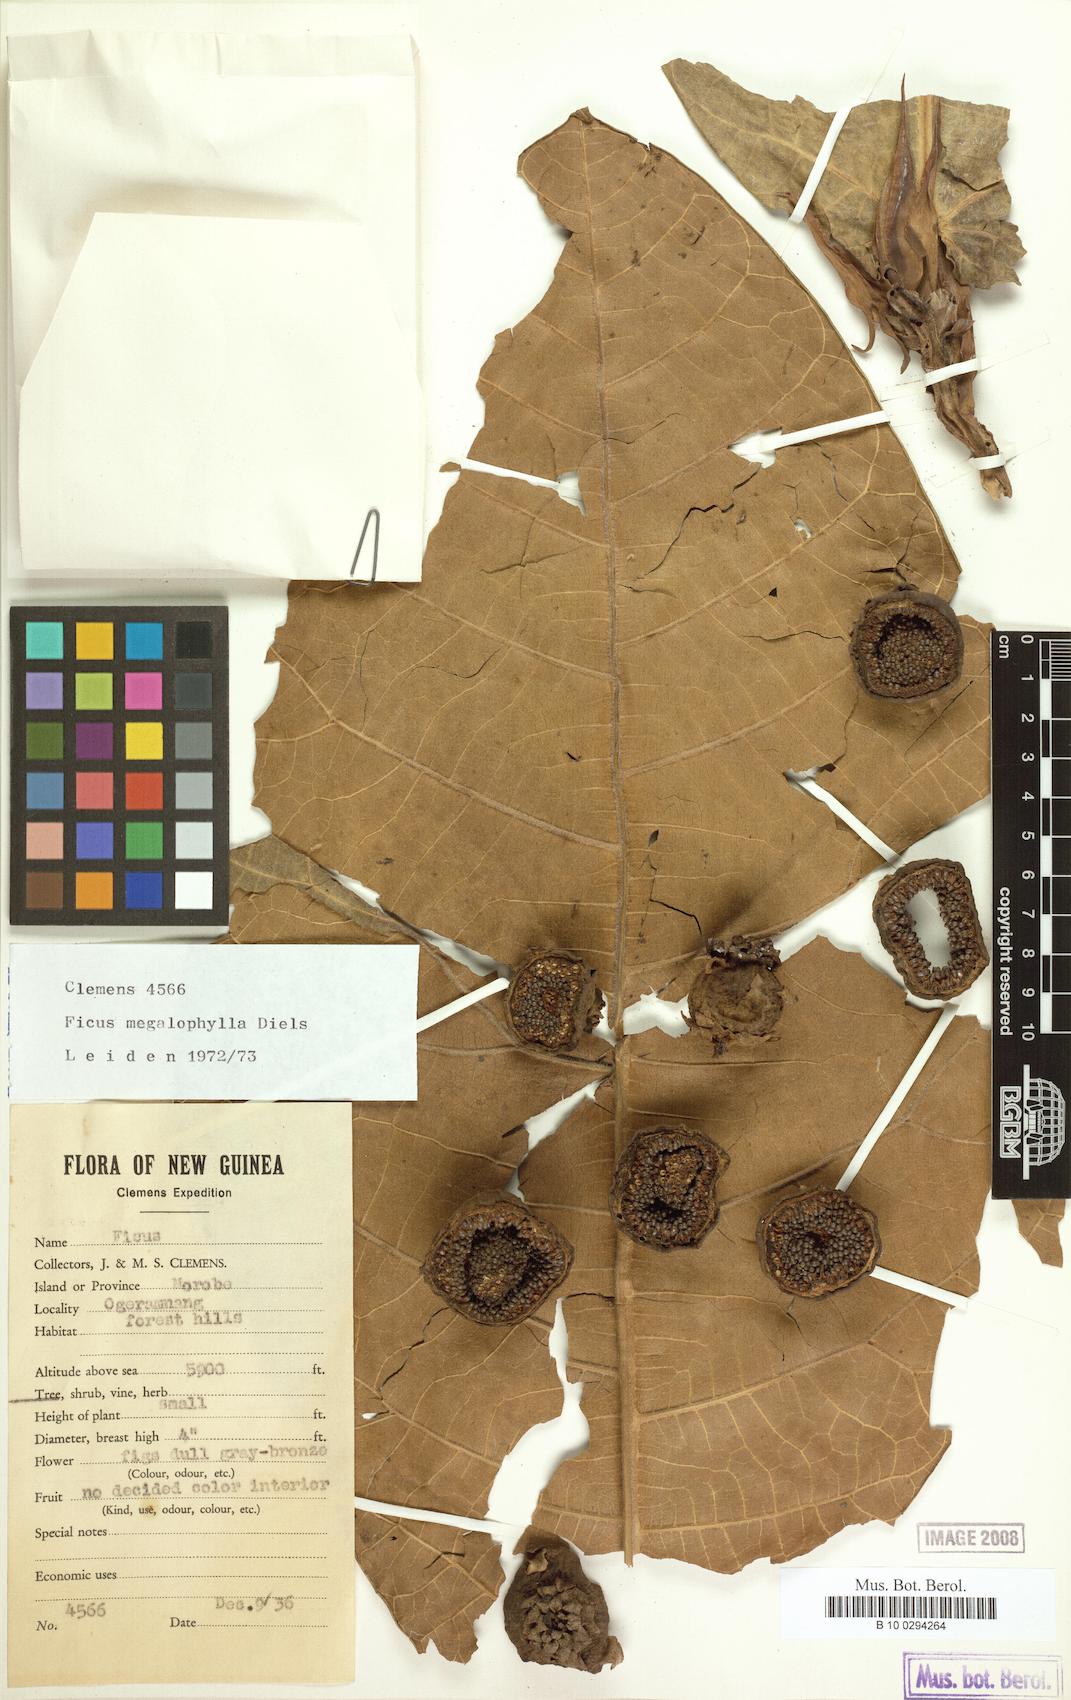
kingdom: Plantae
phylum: Tracheophyta
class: Magnoliopsida
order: Rosales
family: Moraceae
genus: Ficus
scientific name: Ficus megalophylla
